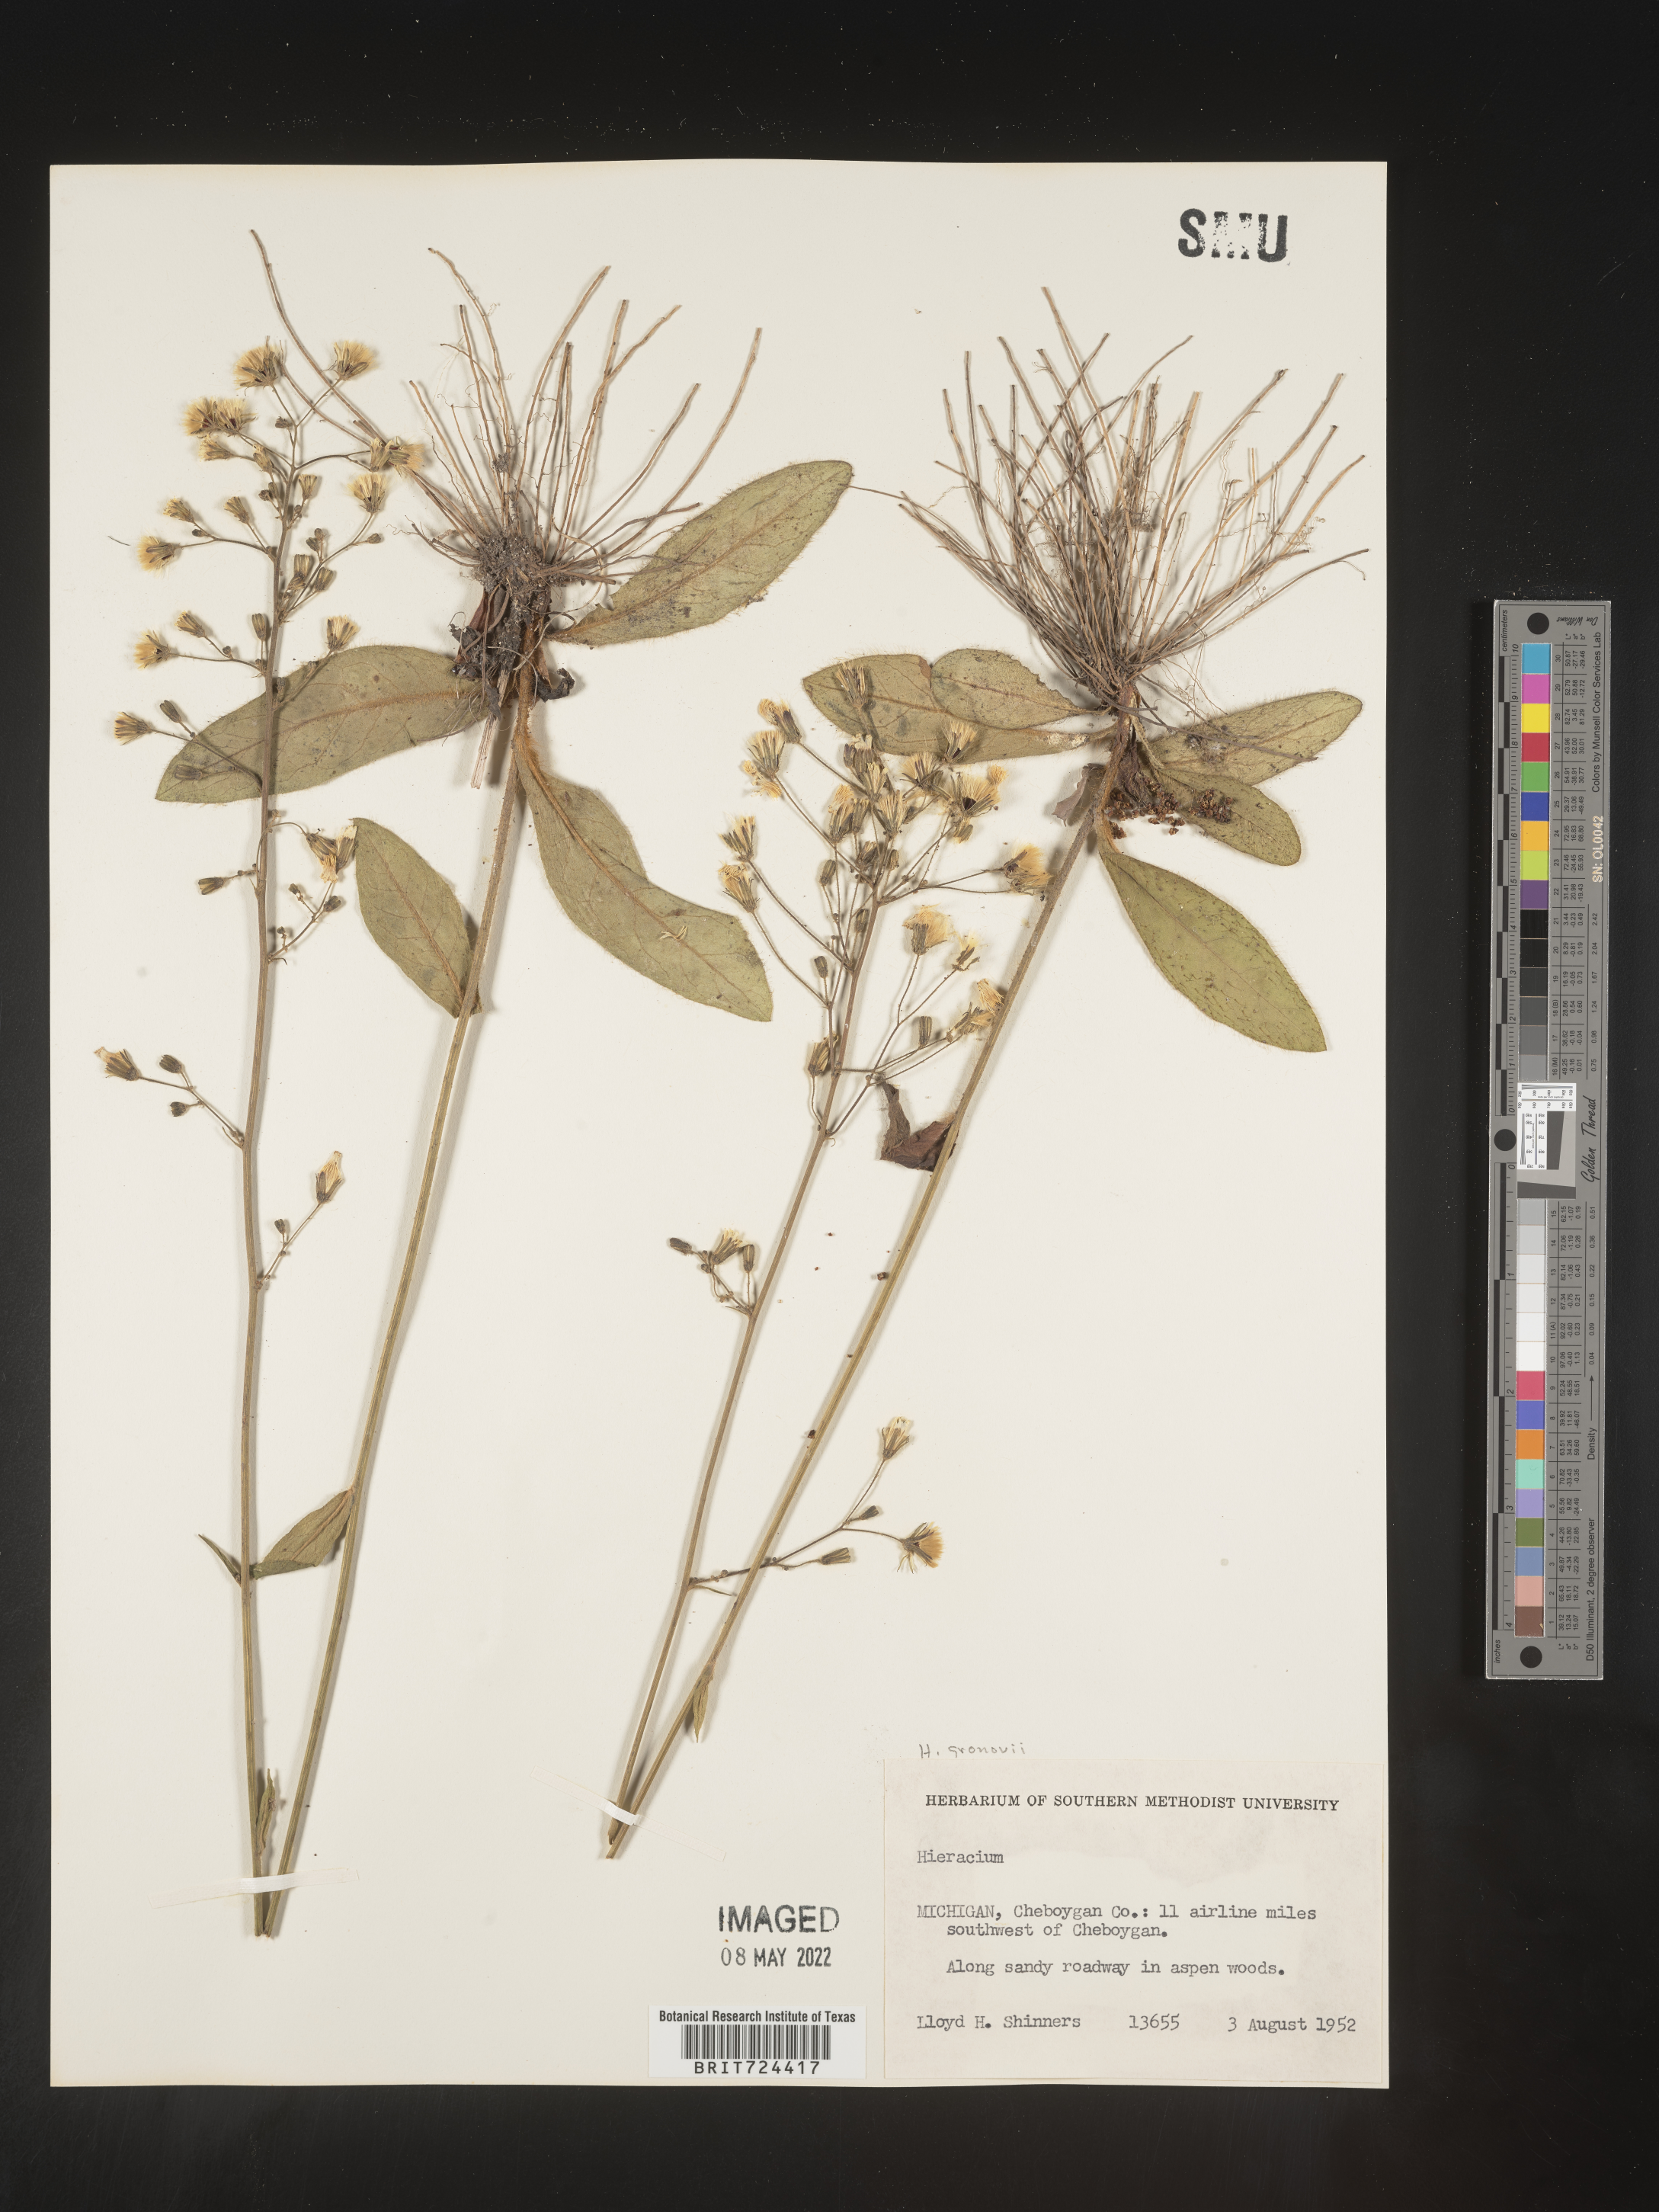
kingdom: Plantae
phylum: Tracheophyta
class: Magnoliopsida
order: Asterales
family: Asteraceae
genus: Hieracium
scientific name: Hieracium gronovii
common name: Beaked hawkweed
